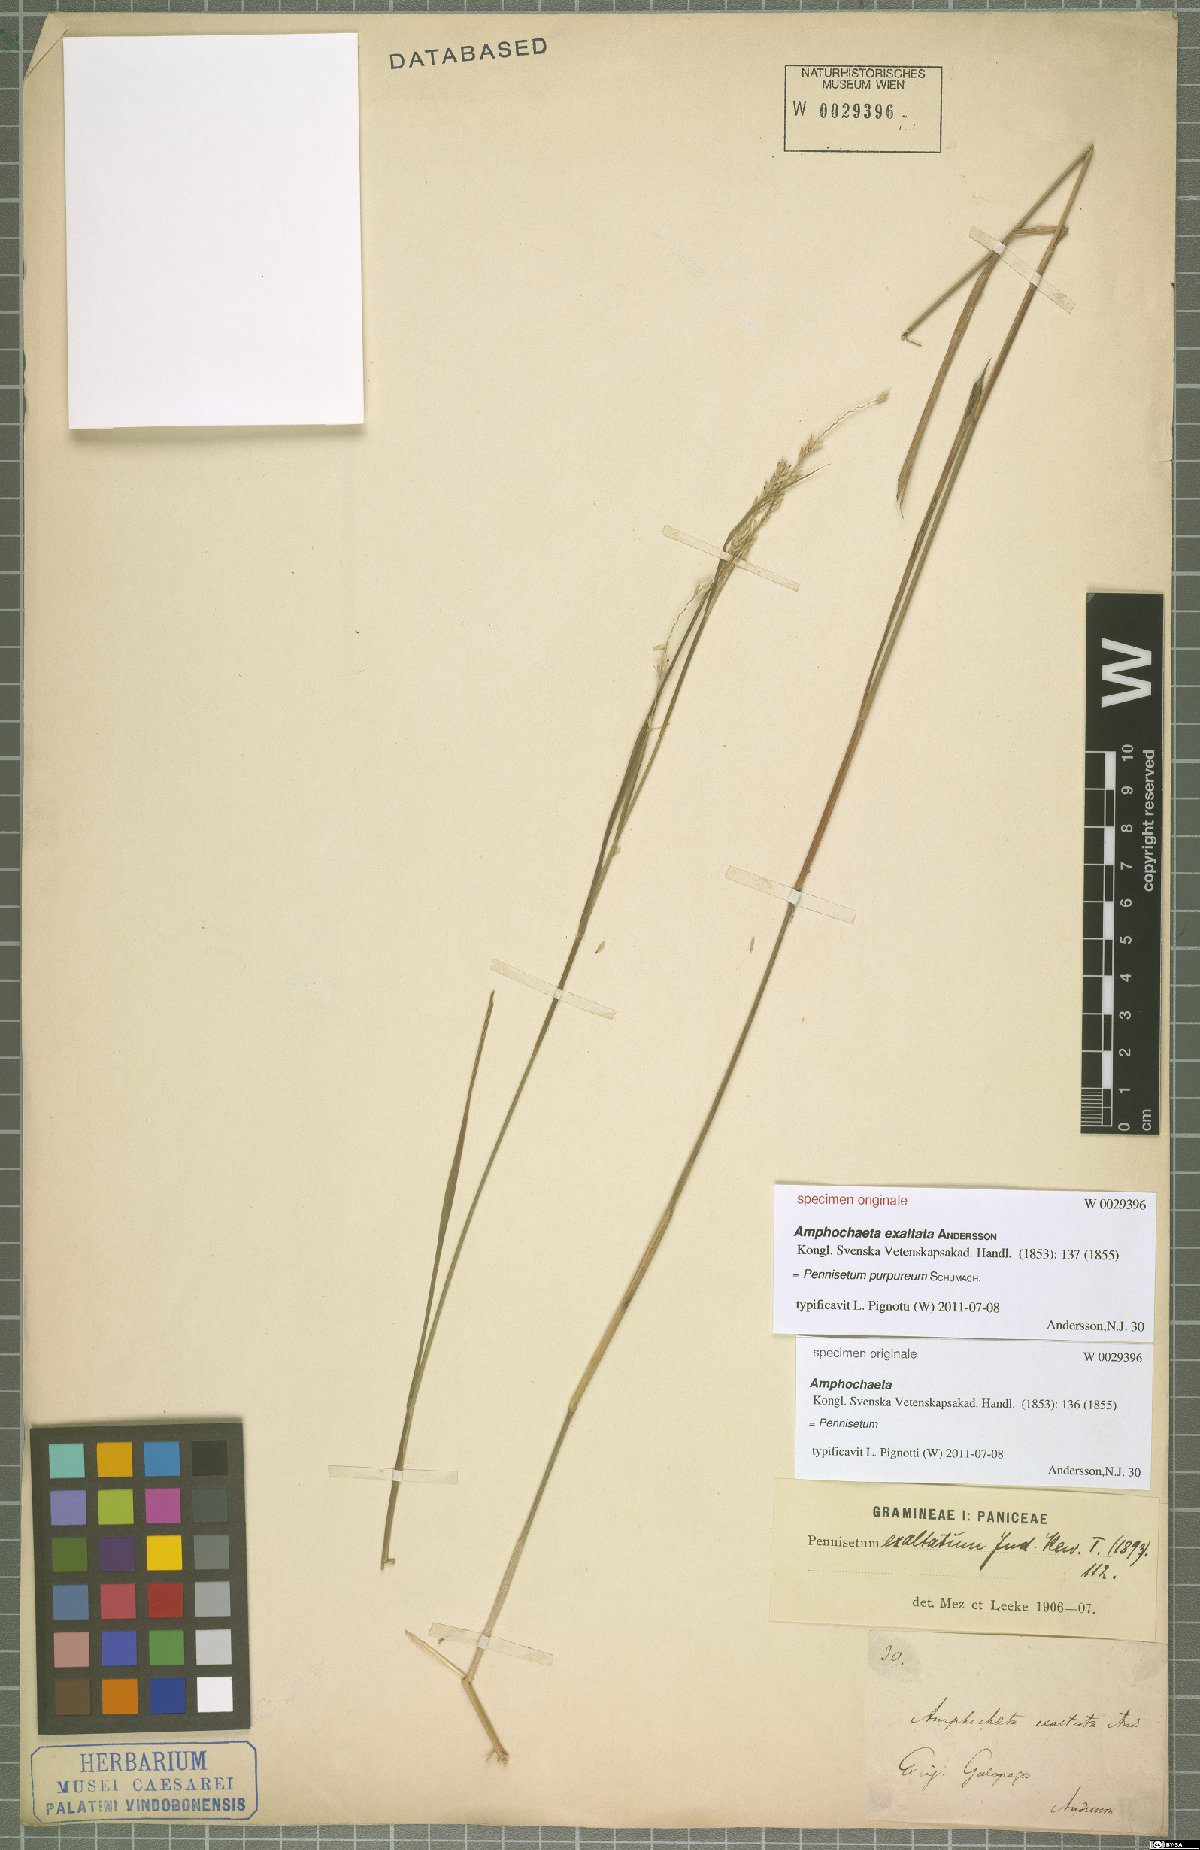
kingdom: Plantae
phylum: Tracheophyta
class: Liliopsida
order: Poales
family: Poaceae
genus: Cenchrus
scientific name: Cenchrus purpureus
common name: Elephant grass
